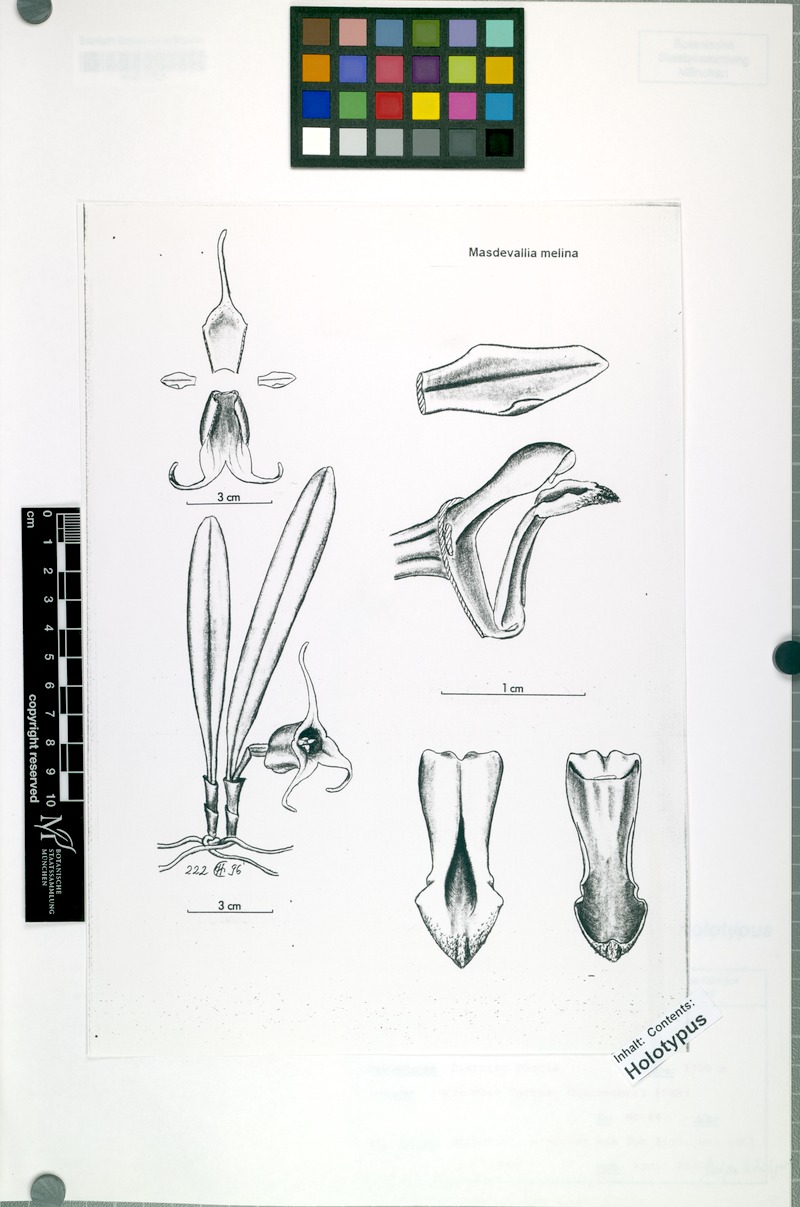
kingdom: Plantae
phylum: Tracheophyta
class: Liliopsida
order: Asparagales
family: Orchidaceae
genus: Masdevallia
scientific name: Masdevallia melina
